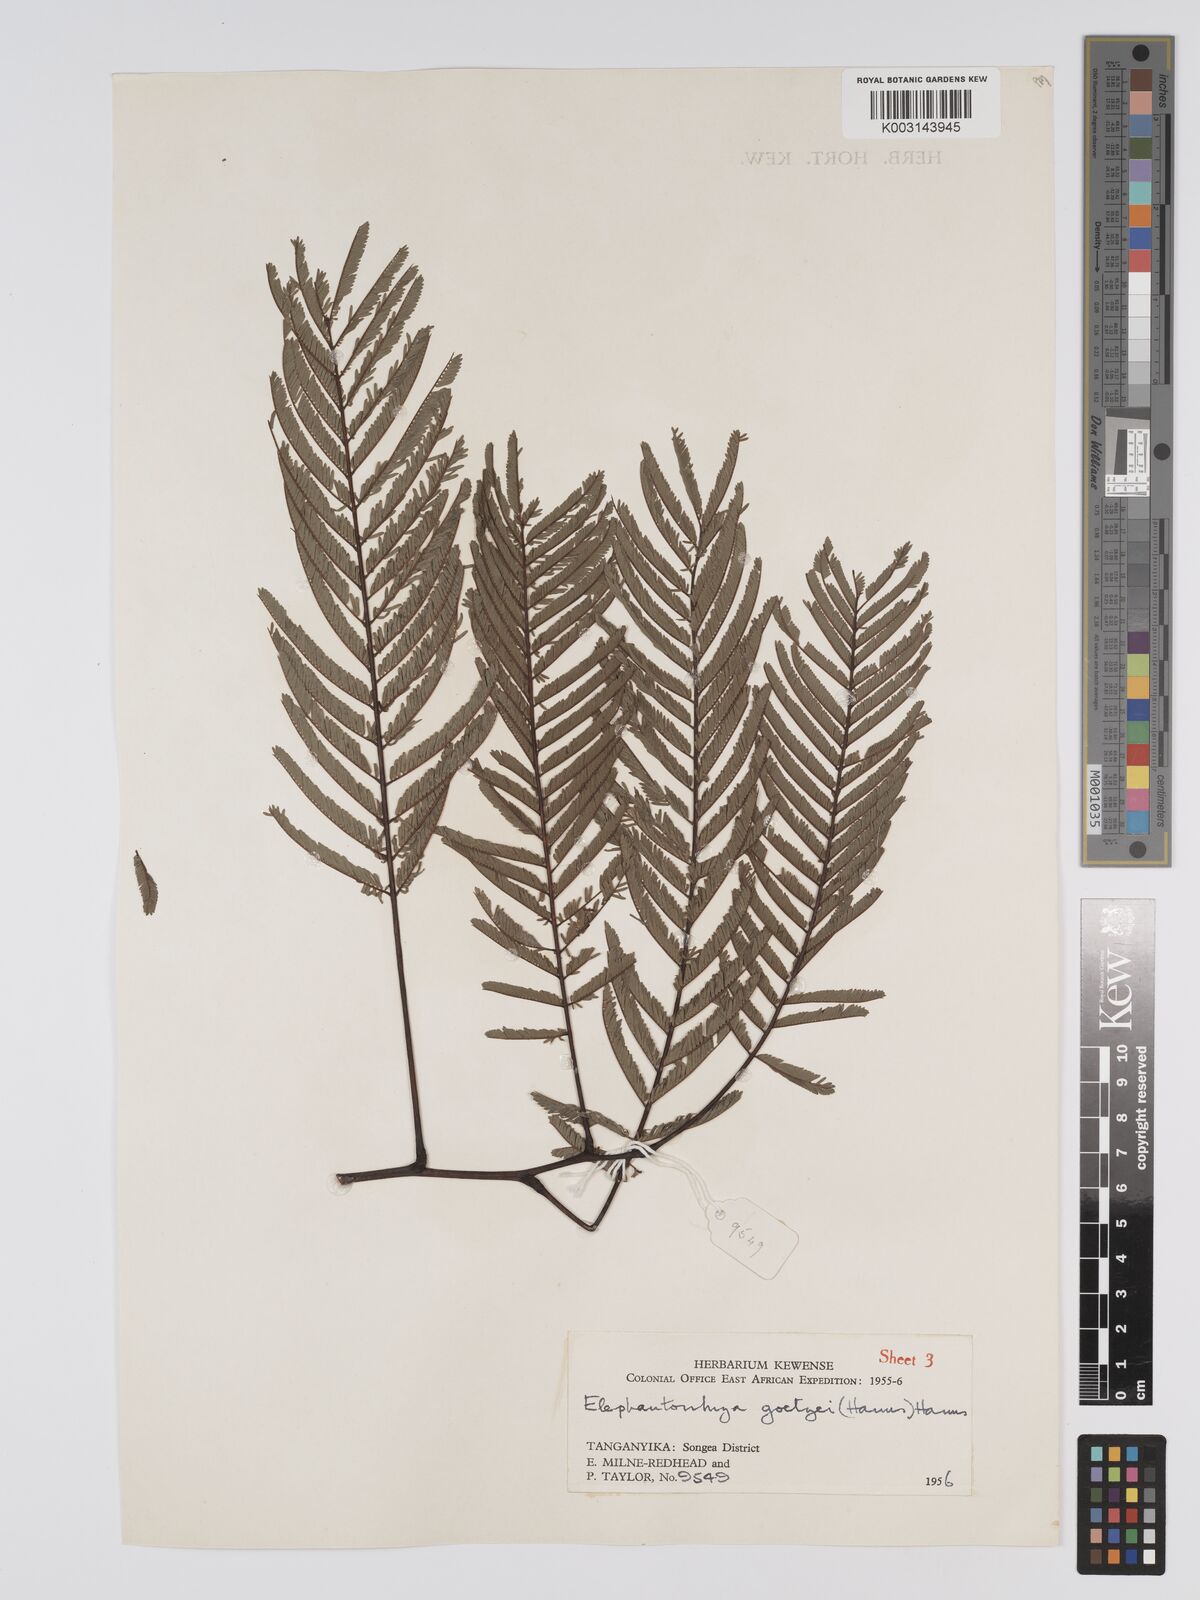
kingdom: Plantae
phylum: Tracheophyta
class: Magnoliopsida
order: Fabales
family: Fabaceae
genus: Elephantorrhiza
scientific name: Elephantorrhiza goetzei
